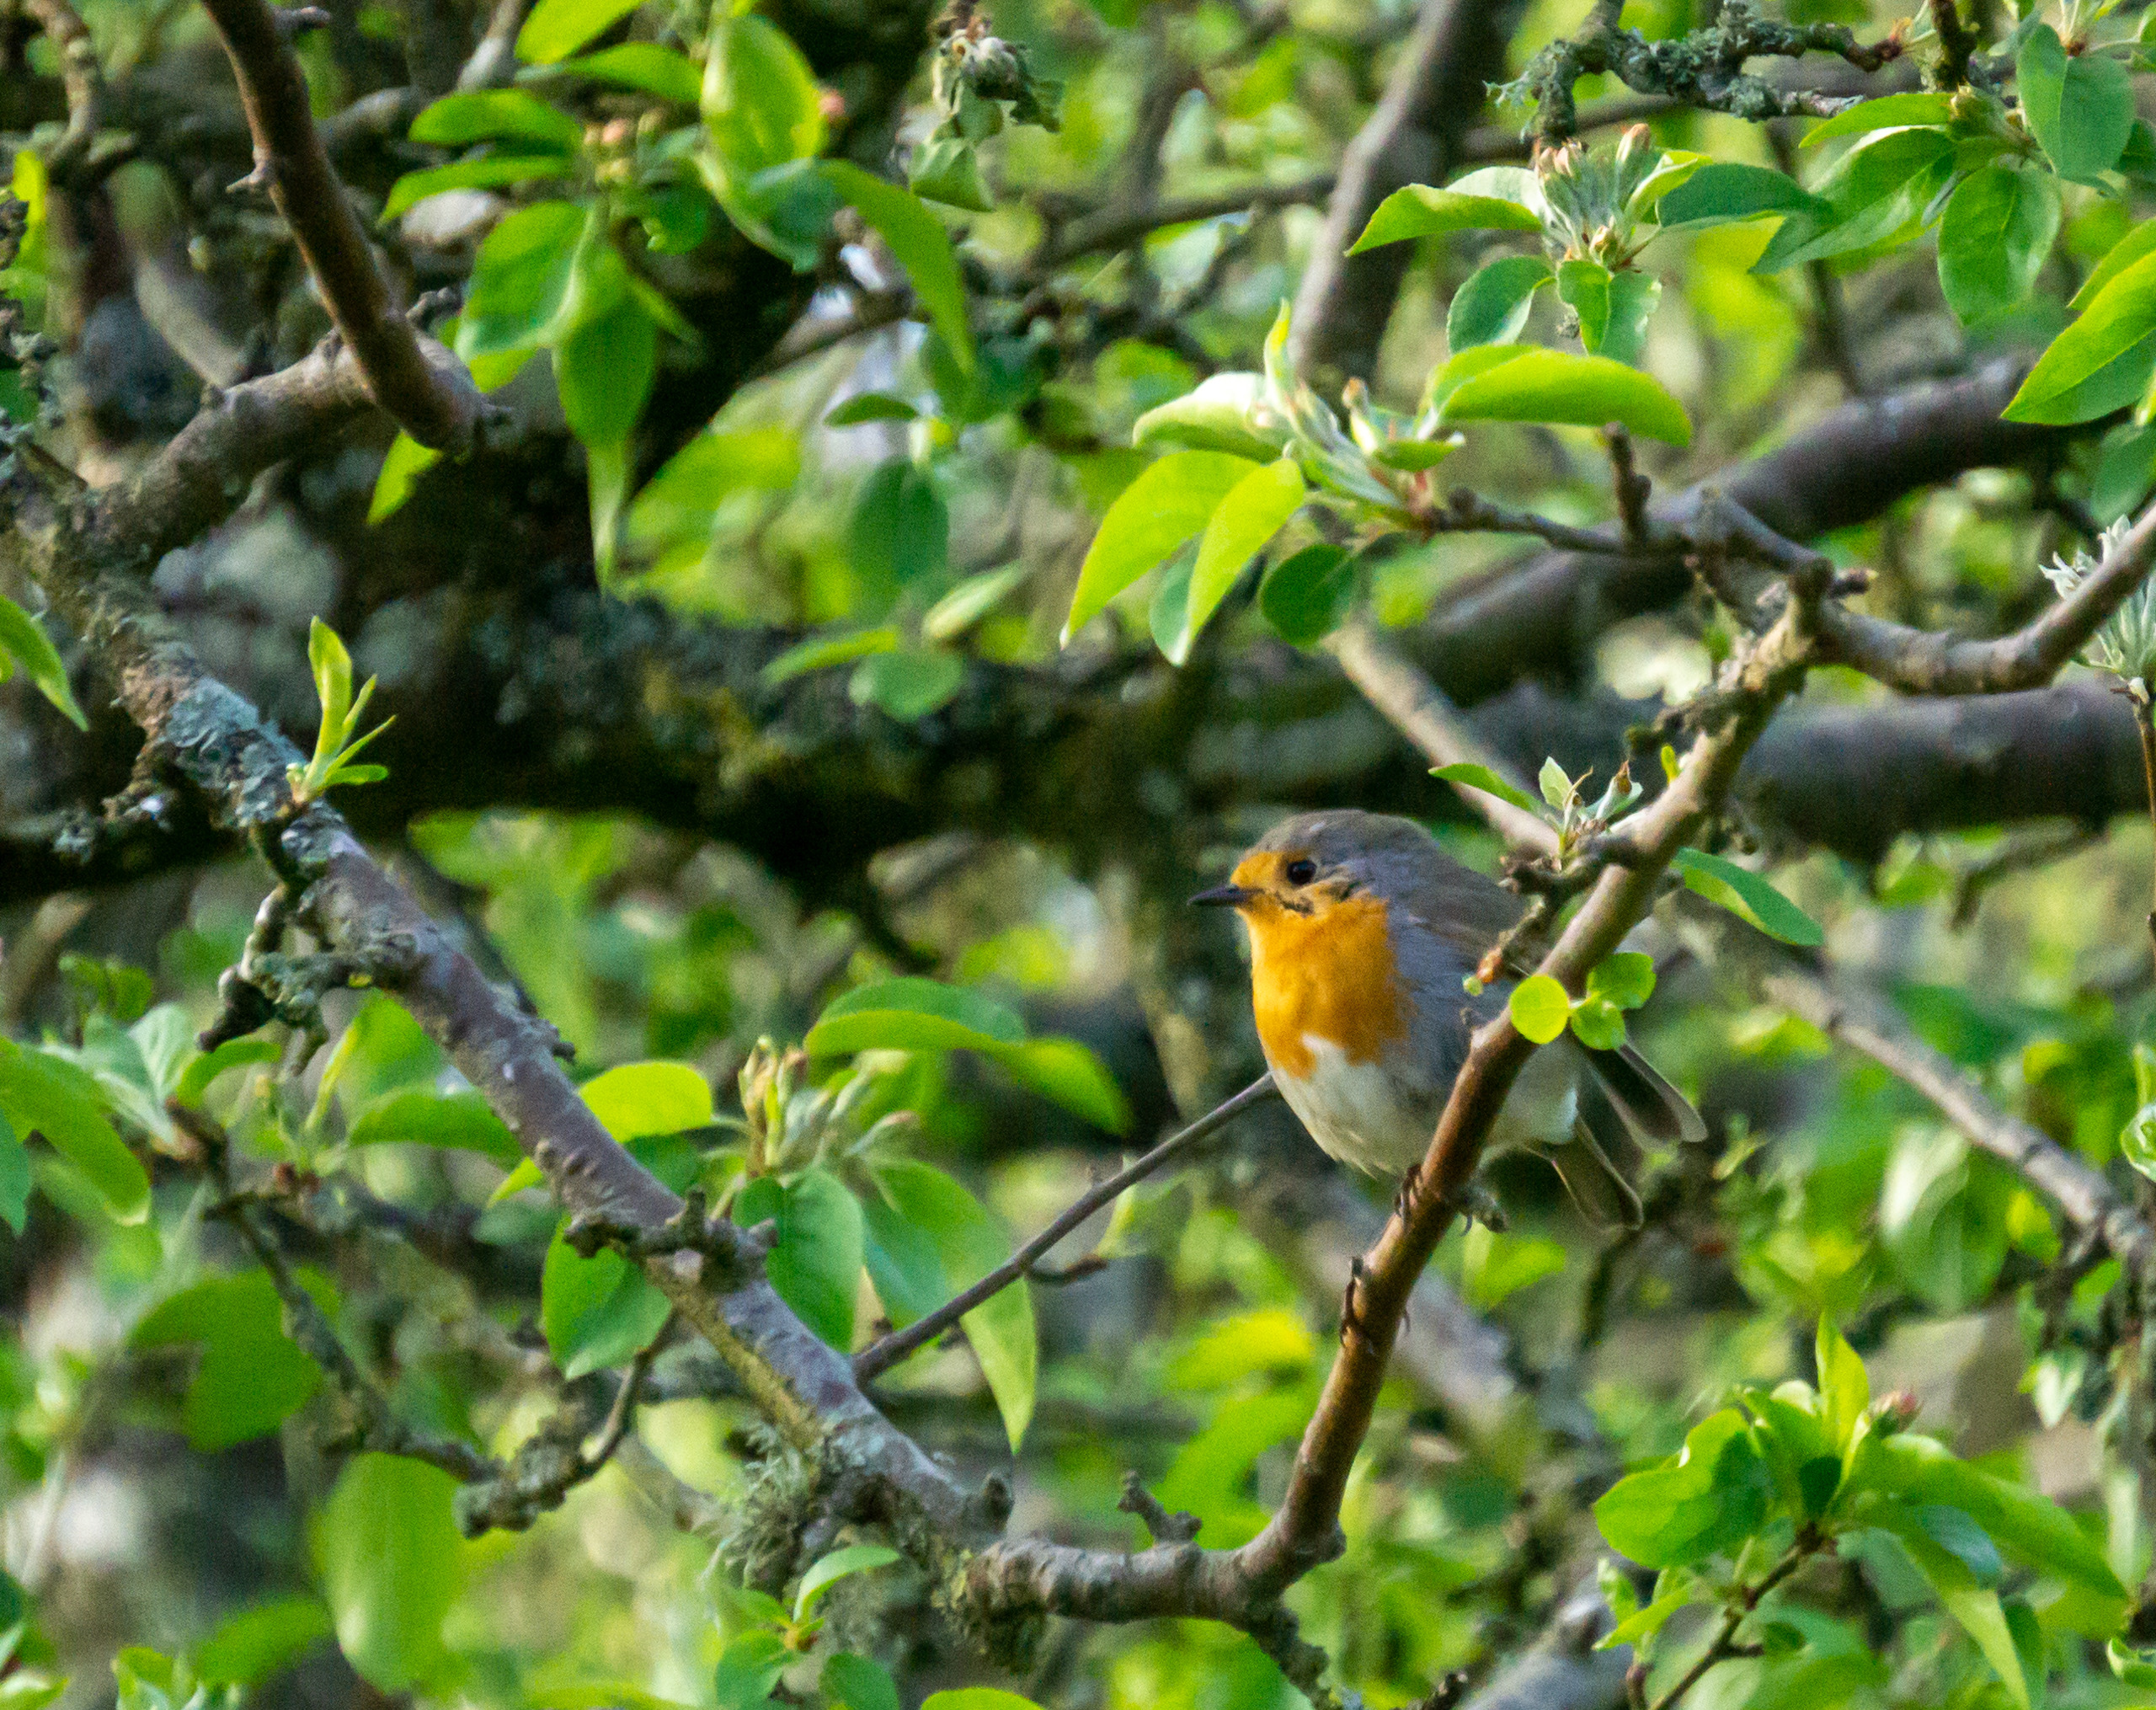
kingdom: Animalia
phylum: Chordata
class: Aves
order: Passeriformes
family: Muscicapidae
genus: Erithacus
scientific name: Erithacus rubecula
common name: Rødhals/rødkælk
